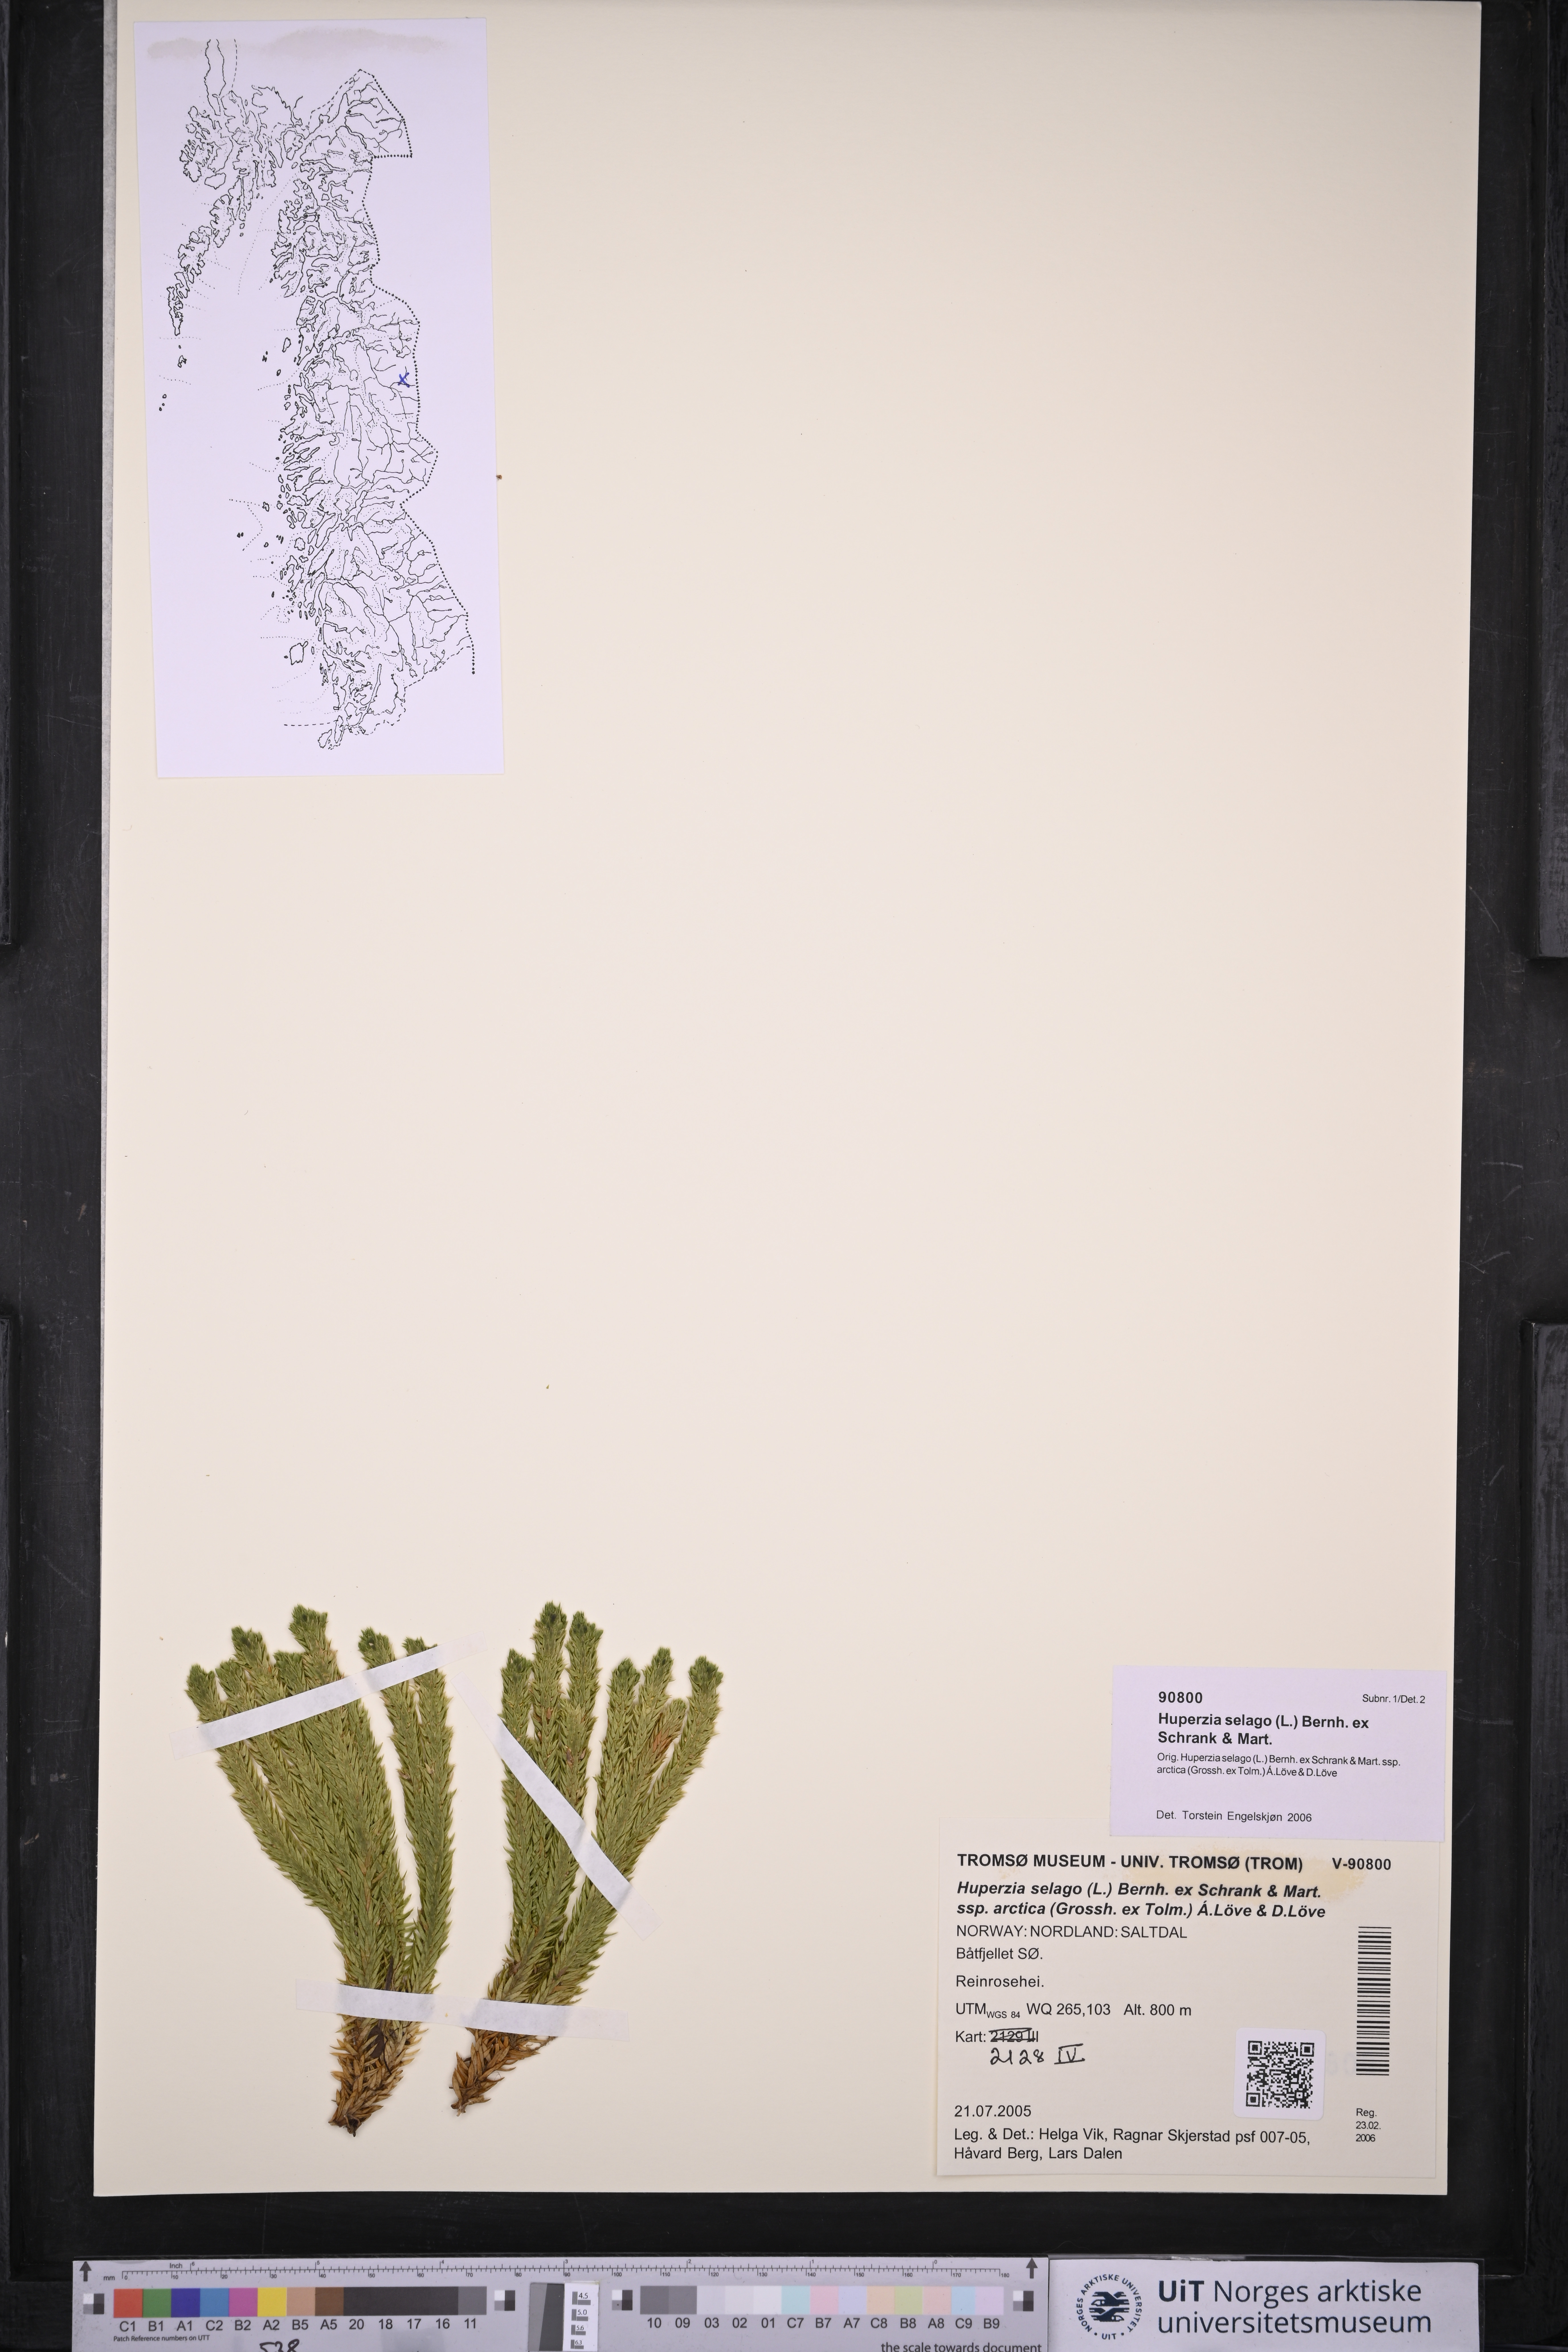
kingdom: Plantae
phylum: Tracheophyta
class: Lycopodiopsida
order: Lycopodiales
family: Lycopodiaceae
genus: Huperzia
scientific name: Huperzia selago
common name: Northern firmoss
